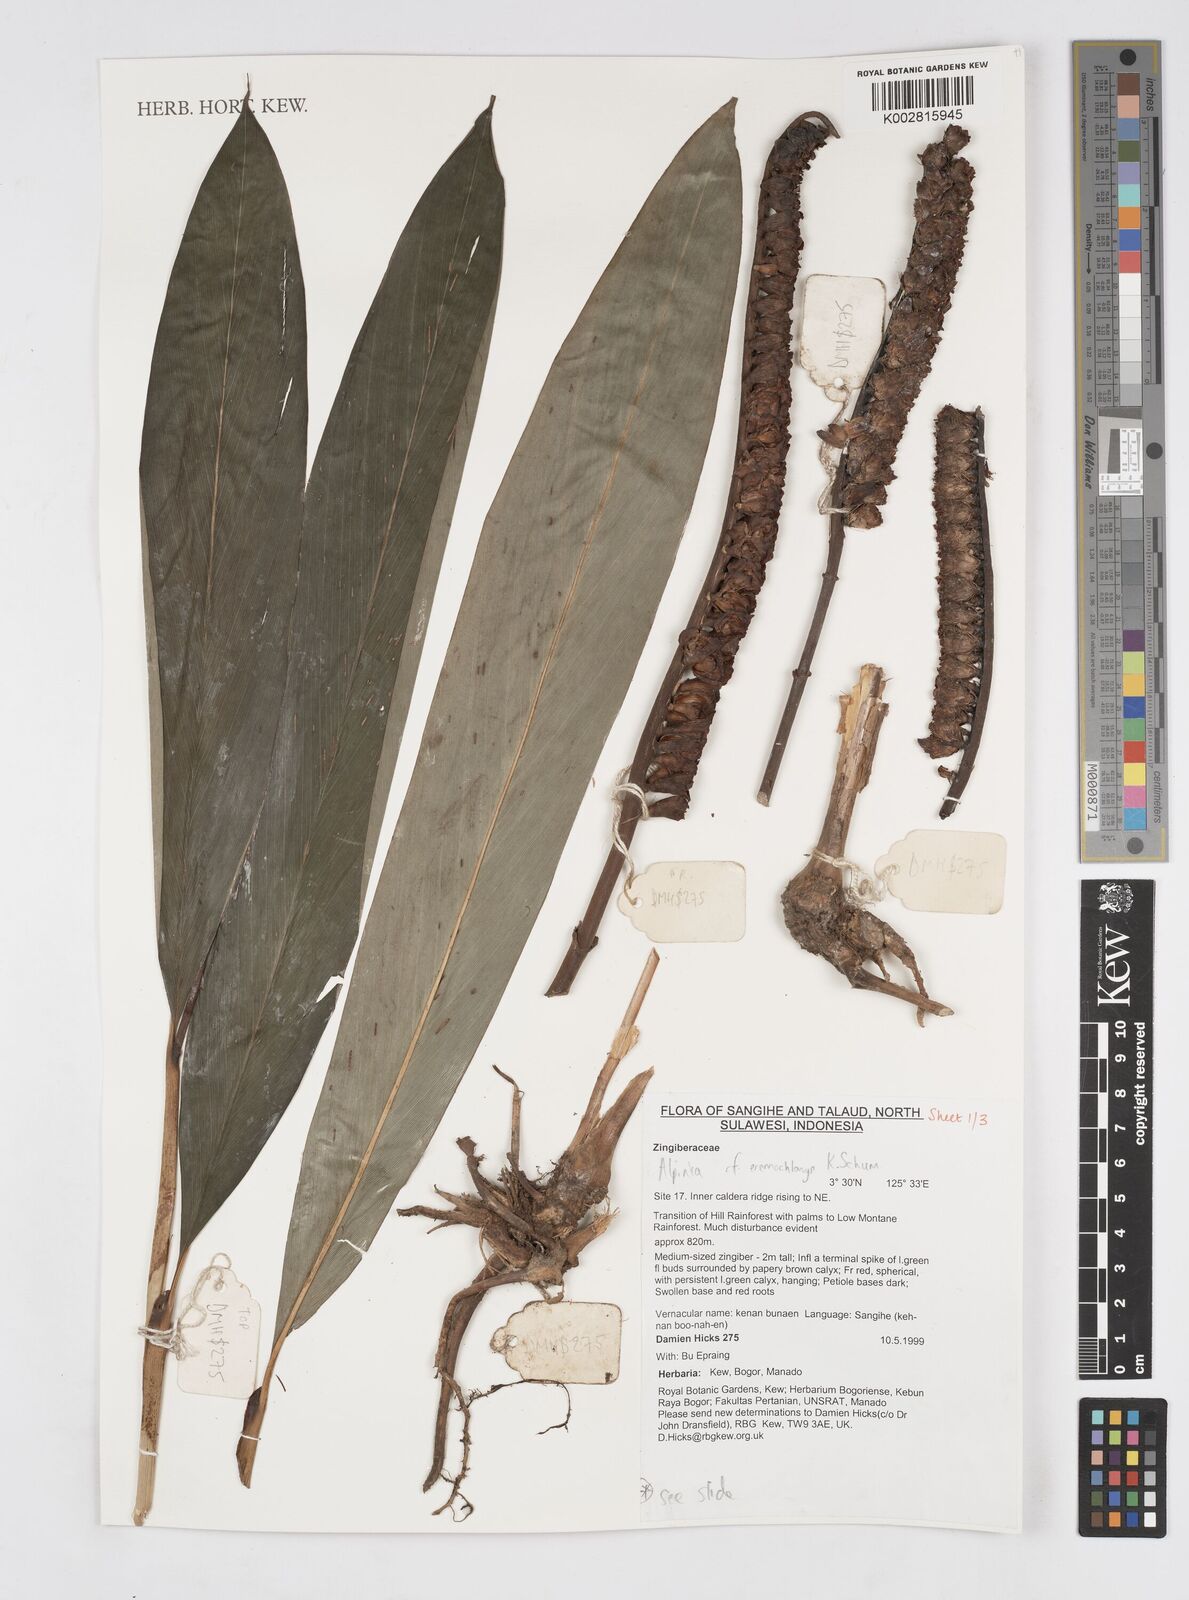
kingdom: Plantae
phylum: Tracheophyta
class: Liliopsida
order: Zingiberales
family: Zingiberaceae
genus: Alpinia
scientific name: Alpinia eremochlamys
